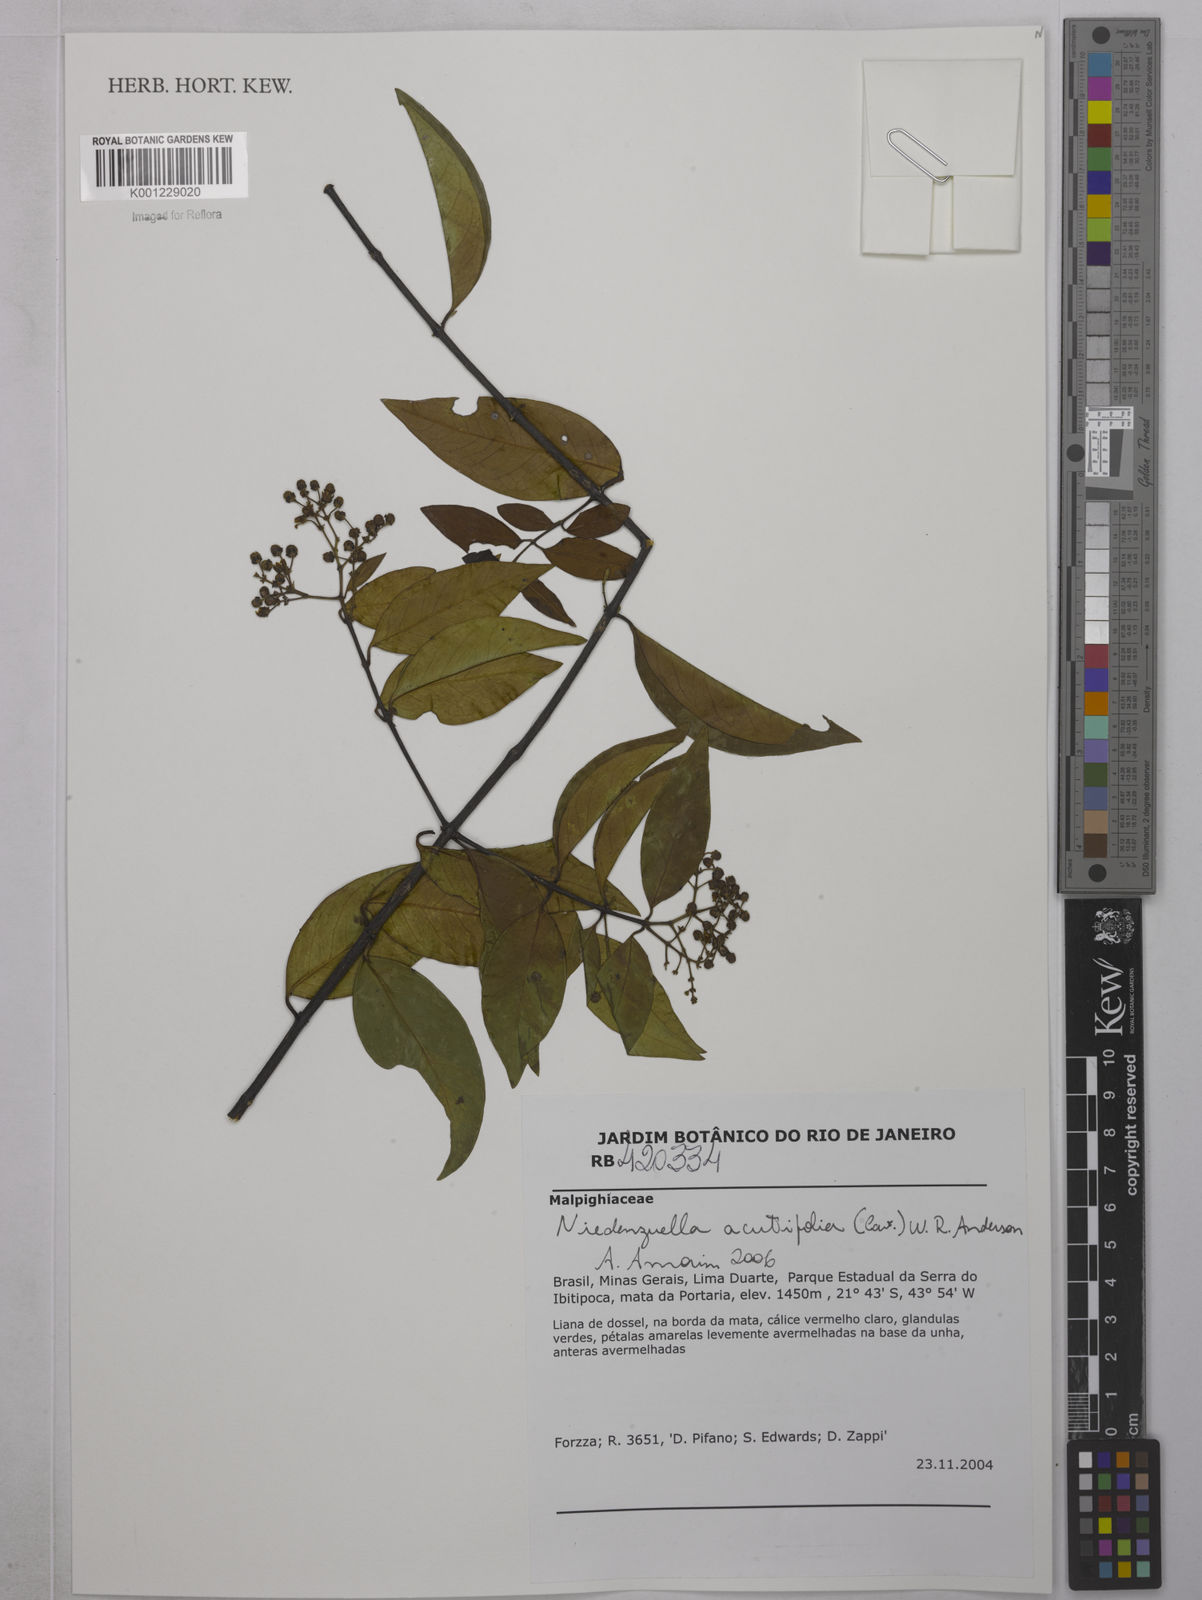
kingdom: Plantae
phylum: Tracheophyta
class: Magnoliopsida
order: Malpighiales
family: Malpighiaceae
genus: Niedenzuella
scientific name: Niedenzuella acutifolia
